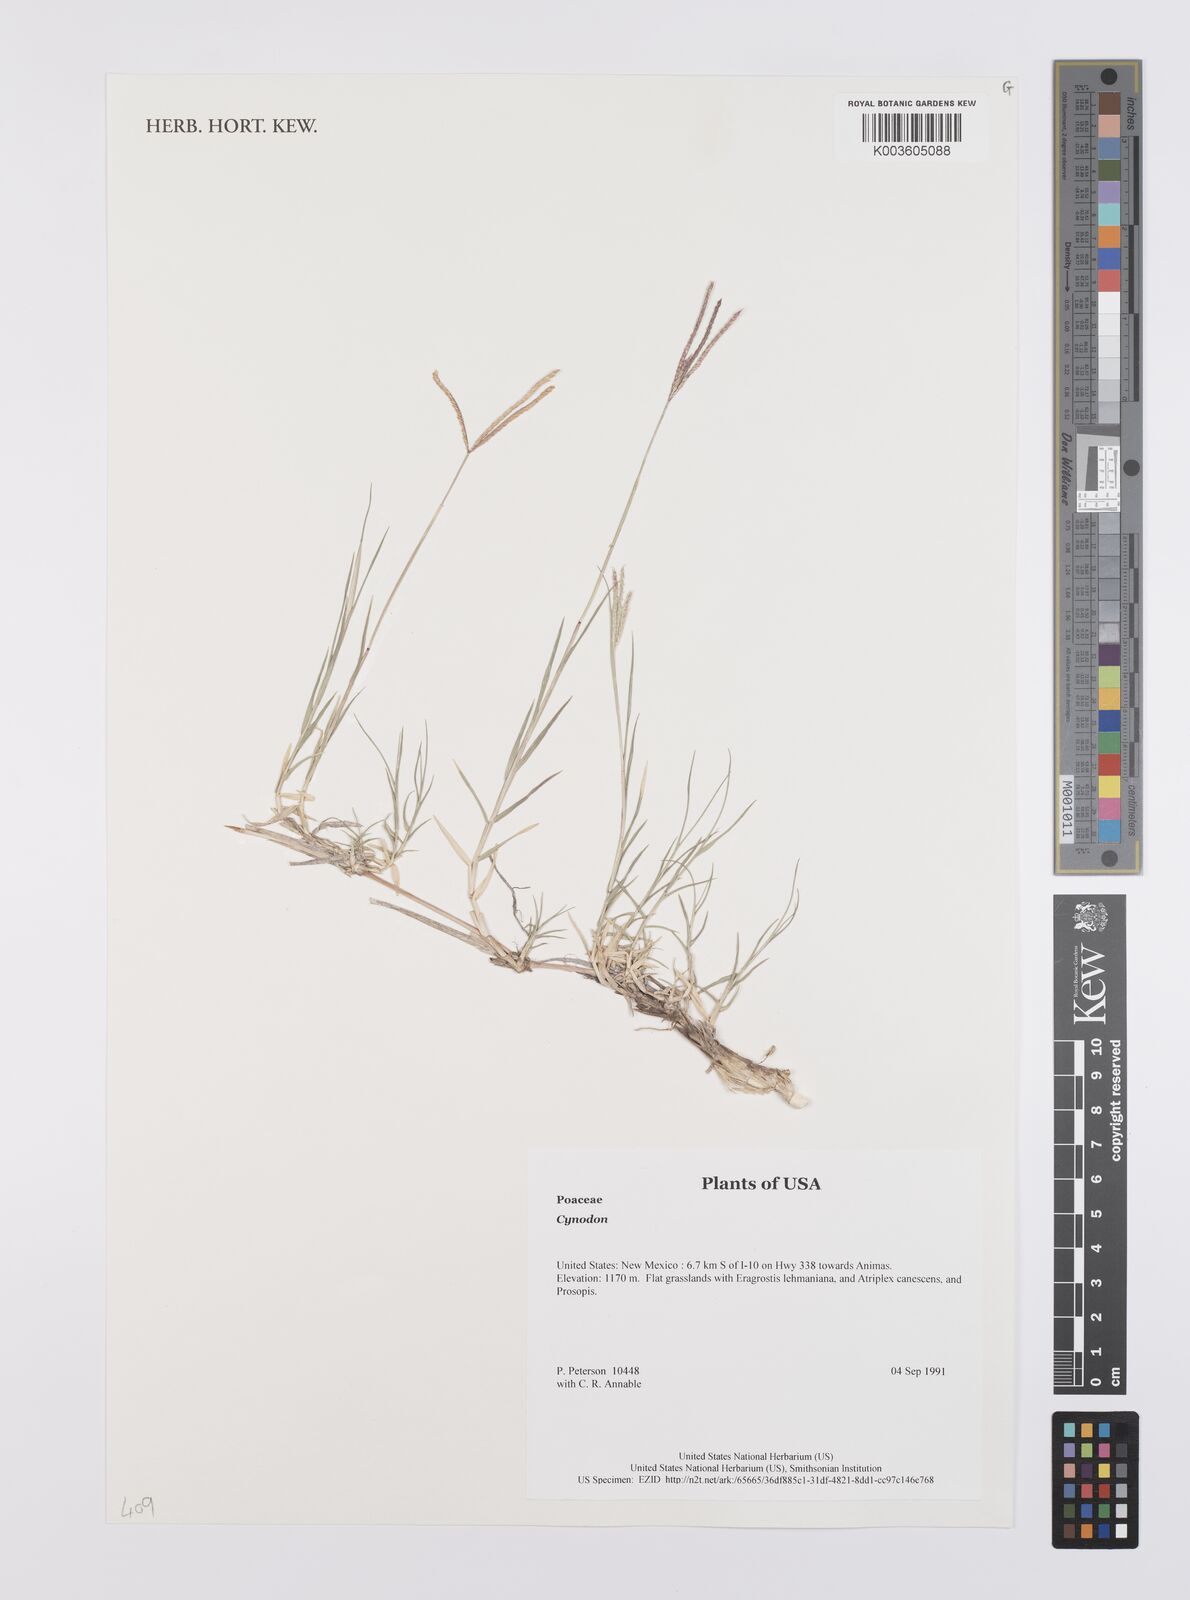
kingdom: Plantae
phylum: Tracheophyta
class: Liliopsida
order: Poales
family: Poaceae
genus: Cynodon
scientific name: Cynodon
